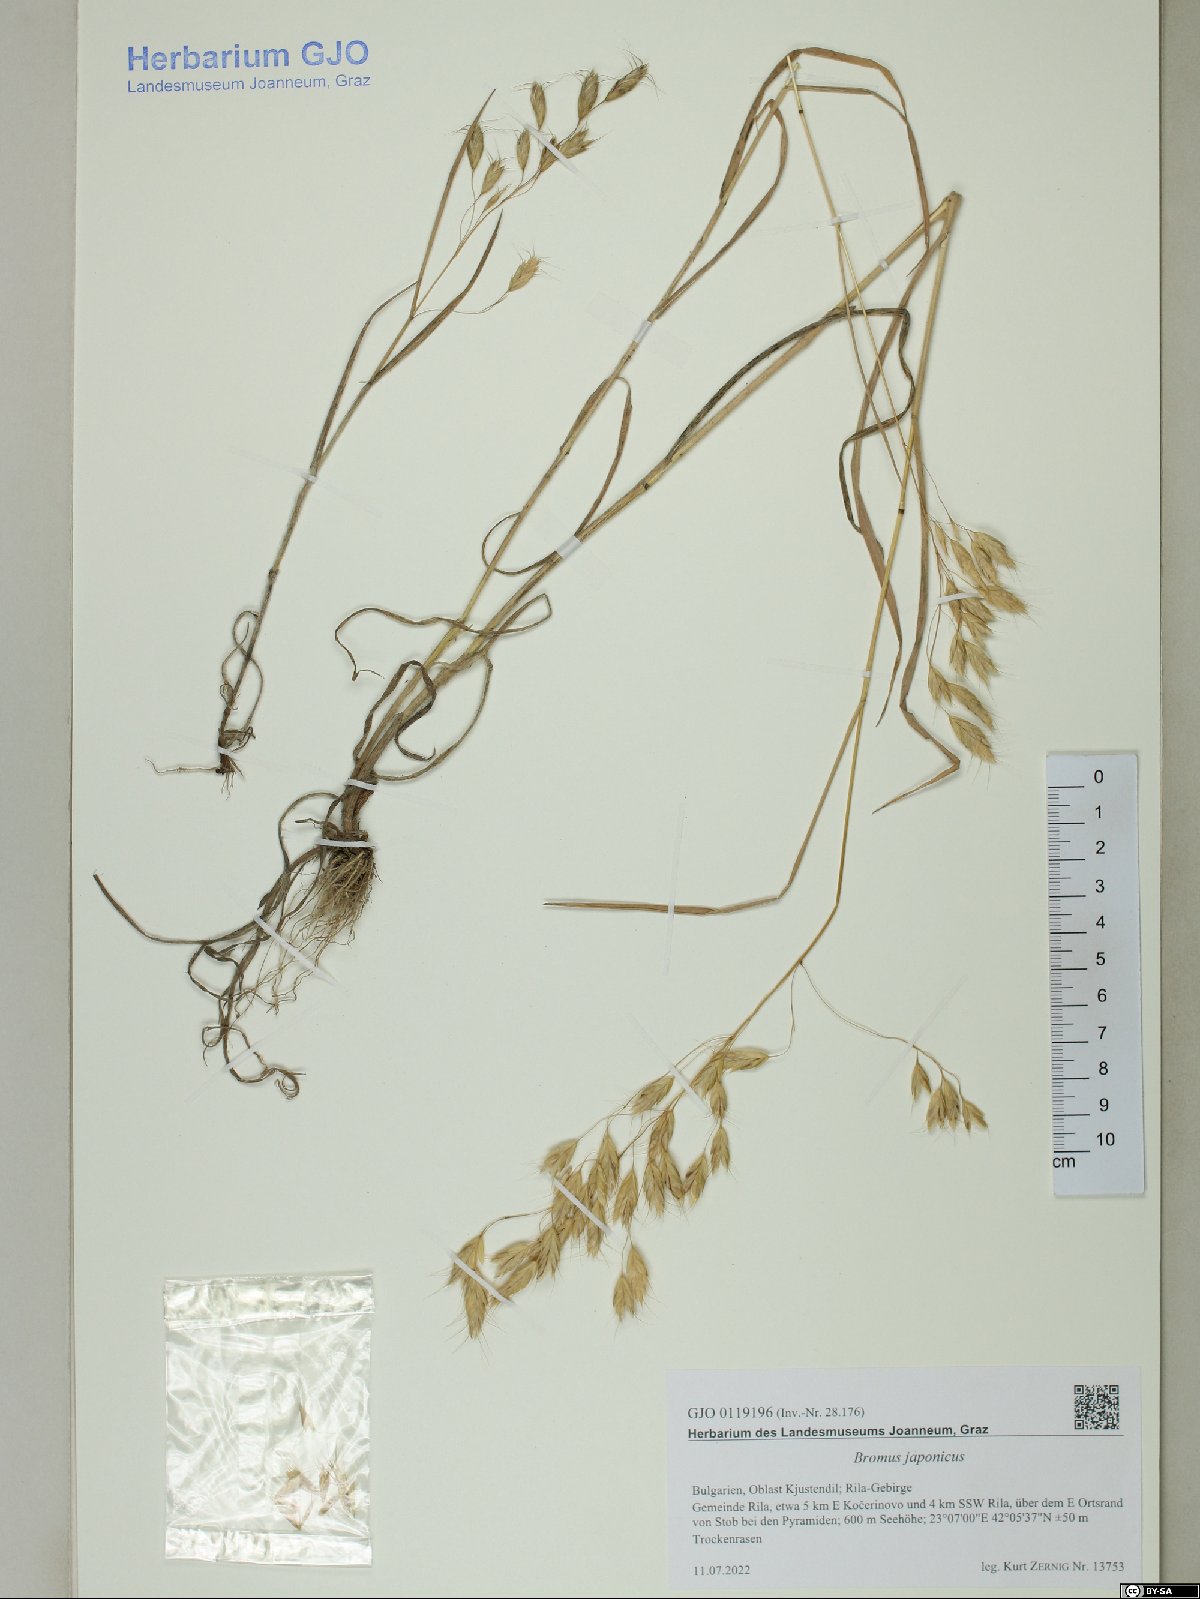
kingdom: Plantae
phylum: Tracheophyta
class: Liliopsida
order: Poales
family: Poaceae
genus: Bromus
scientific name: Bromus japonicus
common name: Japanese brome
